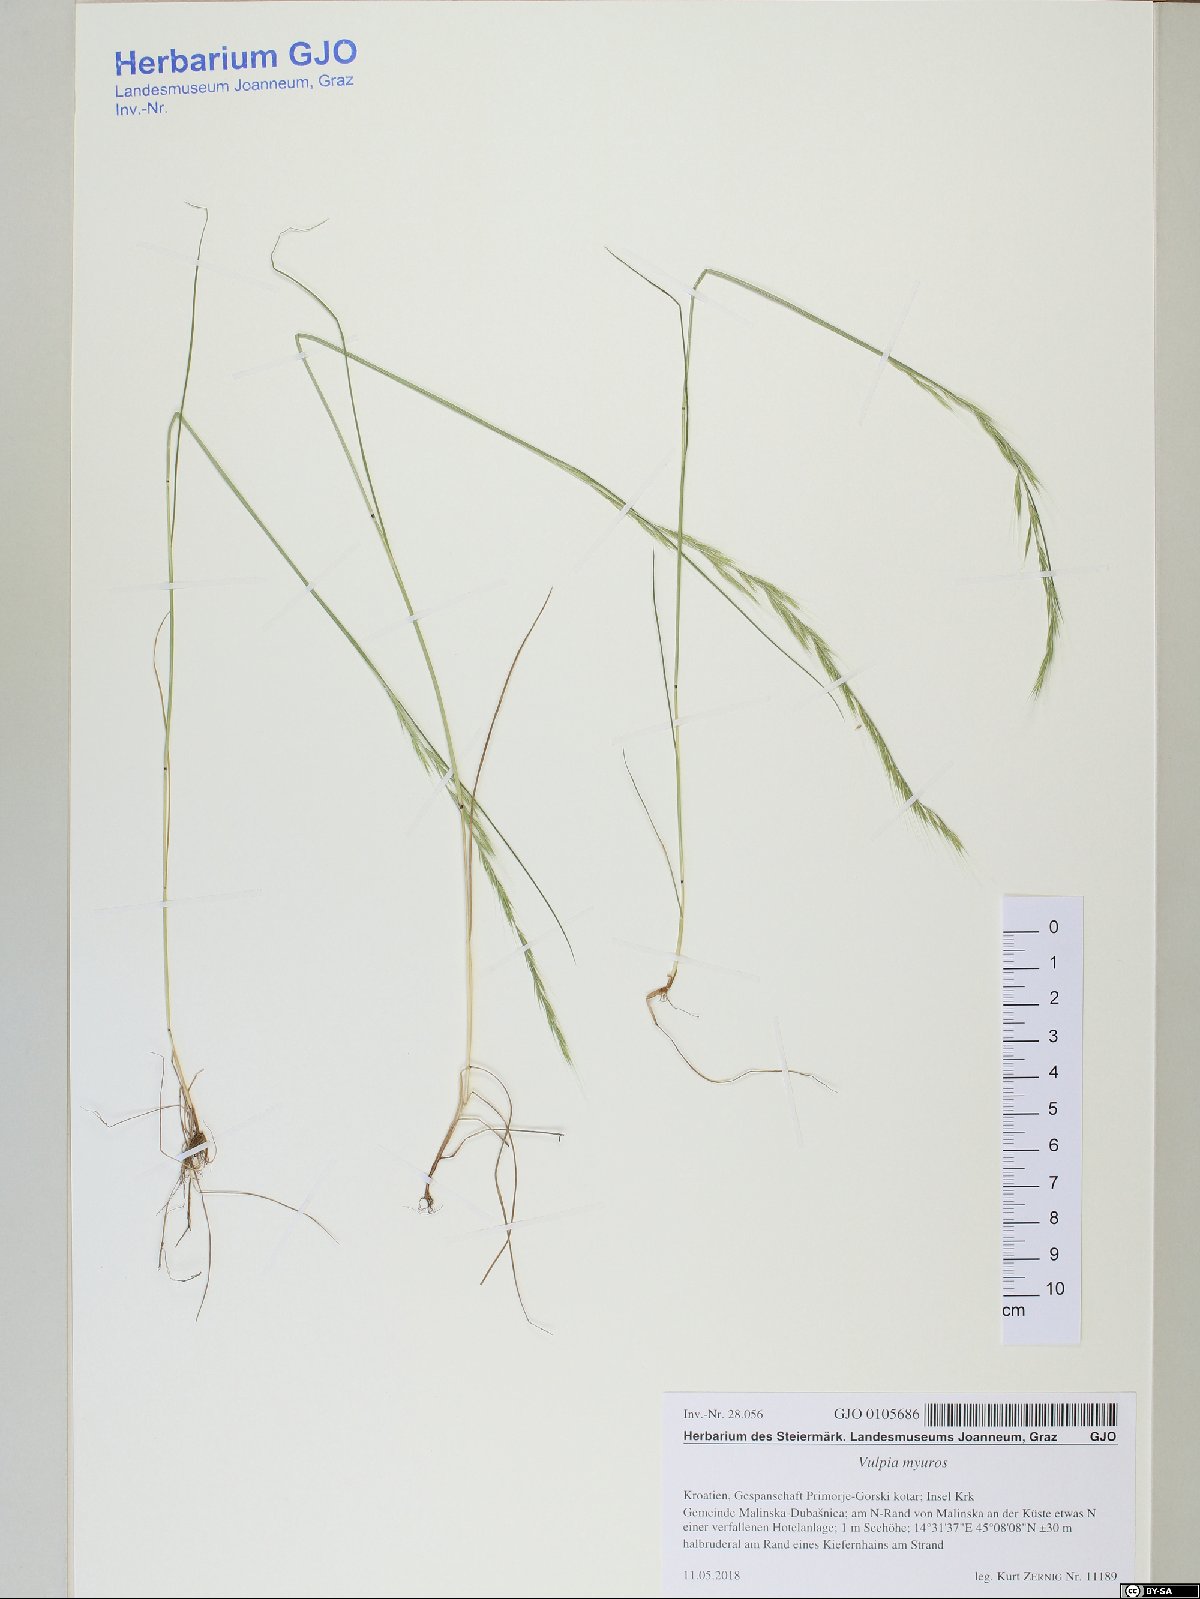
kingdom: Plantae
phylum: Tracheophyta
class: Liliopsida
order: Poales
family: Poaceae
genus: Festuca
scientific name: Festuca myuros
